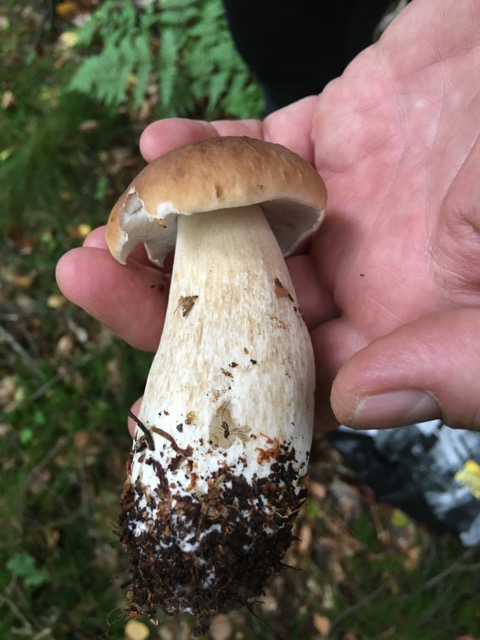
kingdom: Fungi
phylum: Basidiomycota
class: Agaricomycetes
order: Boletales
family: Boletaceae
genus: Boletus
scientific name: Boletus edulis
